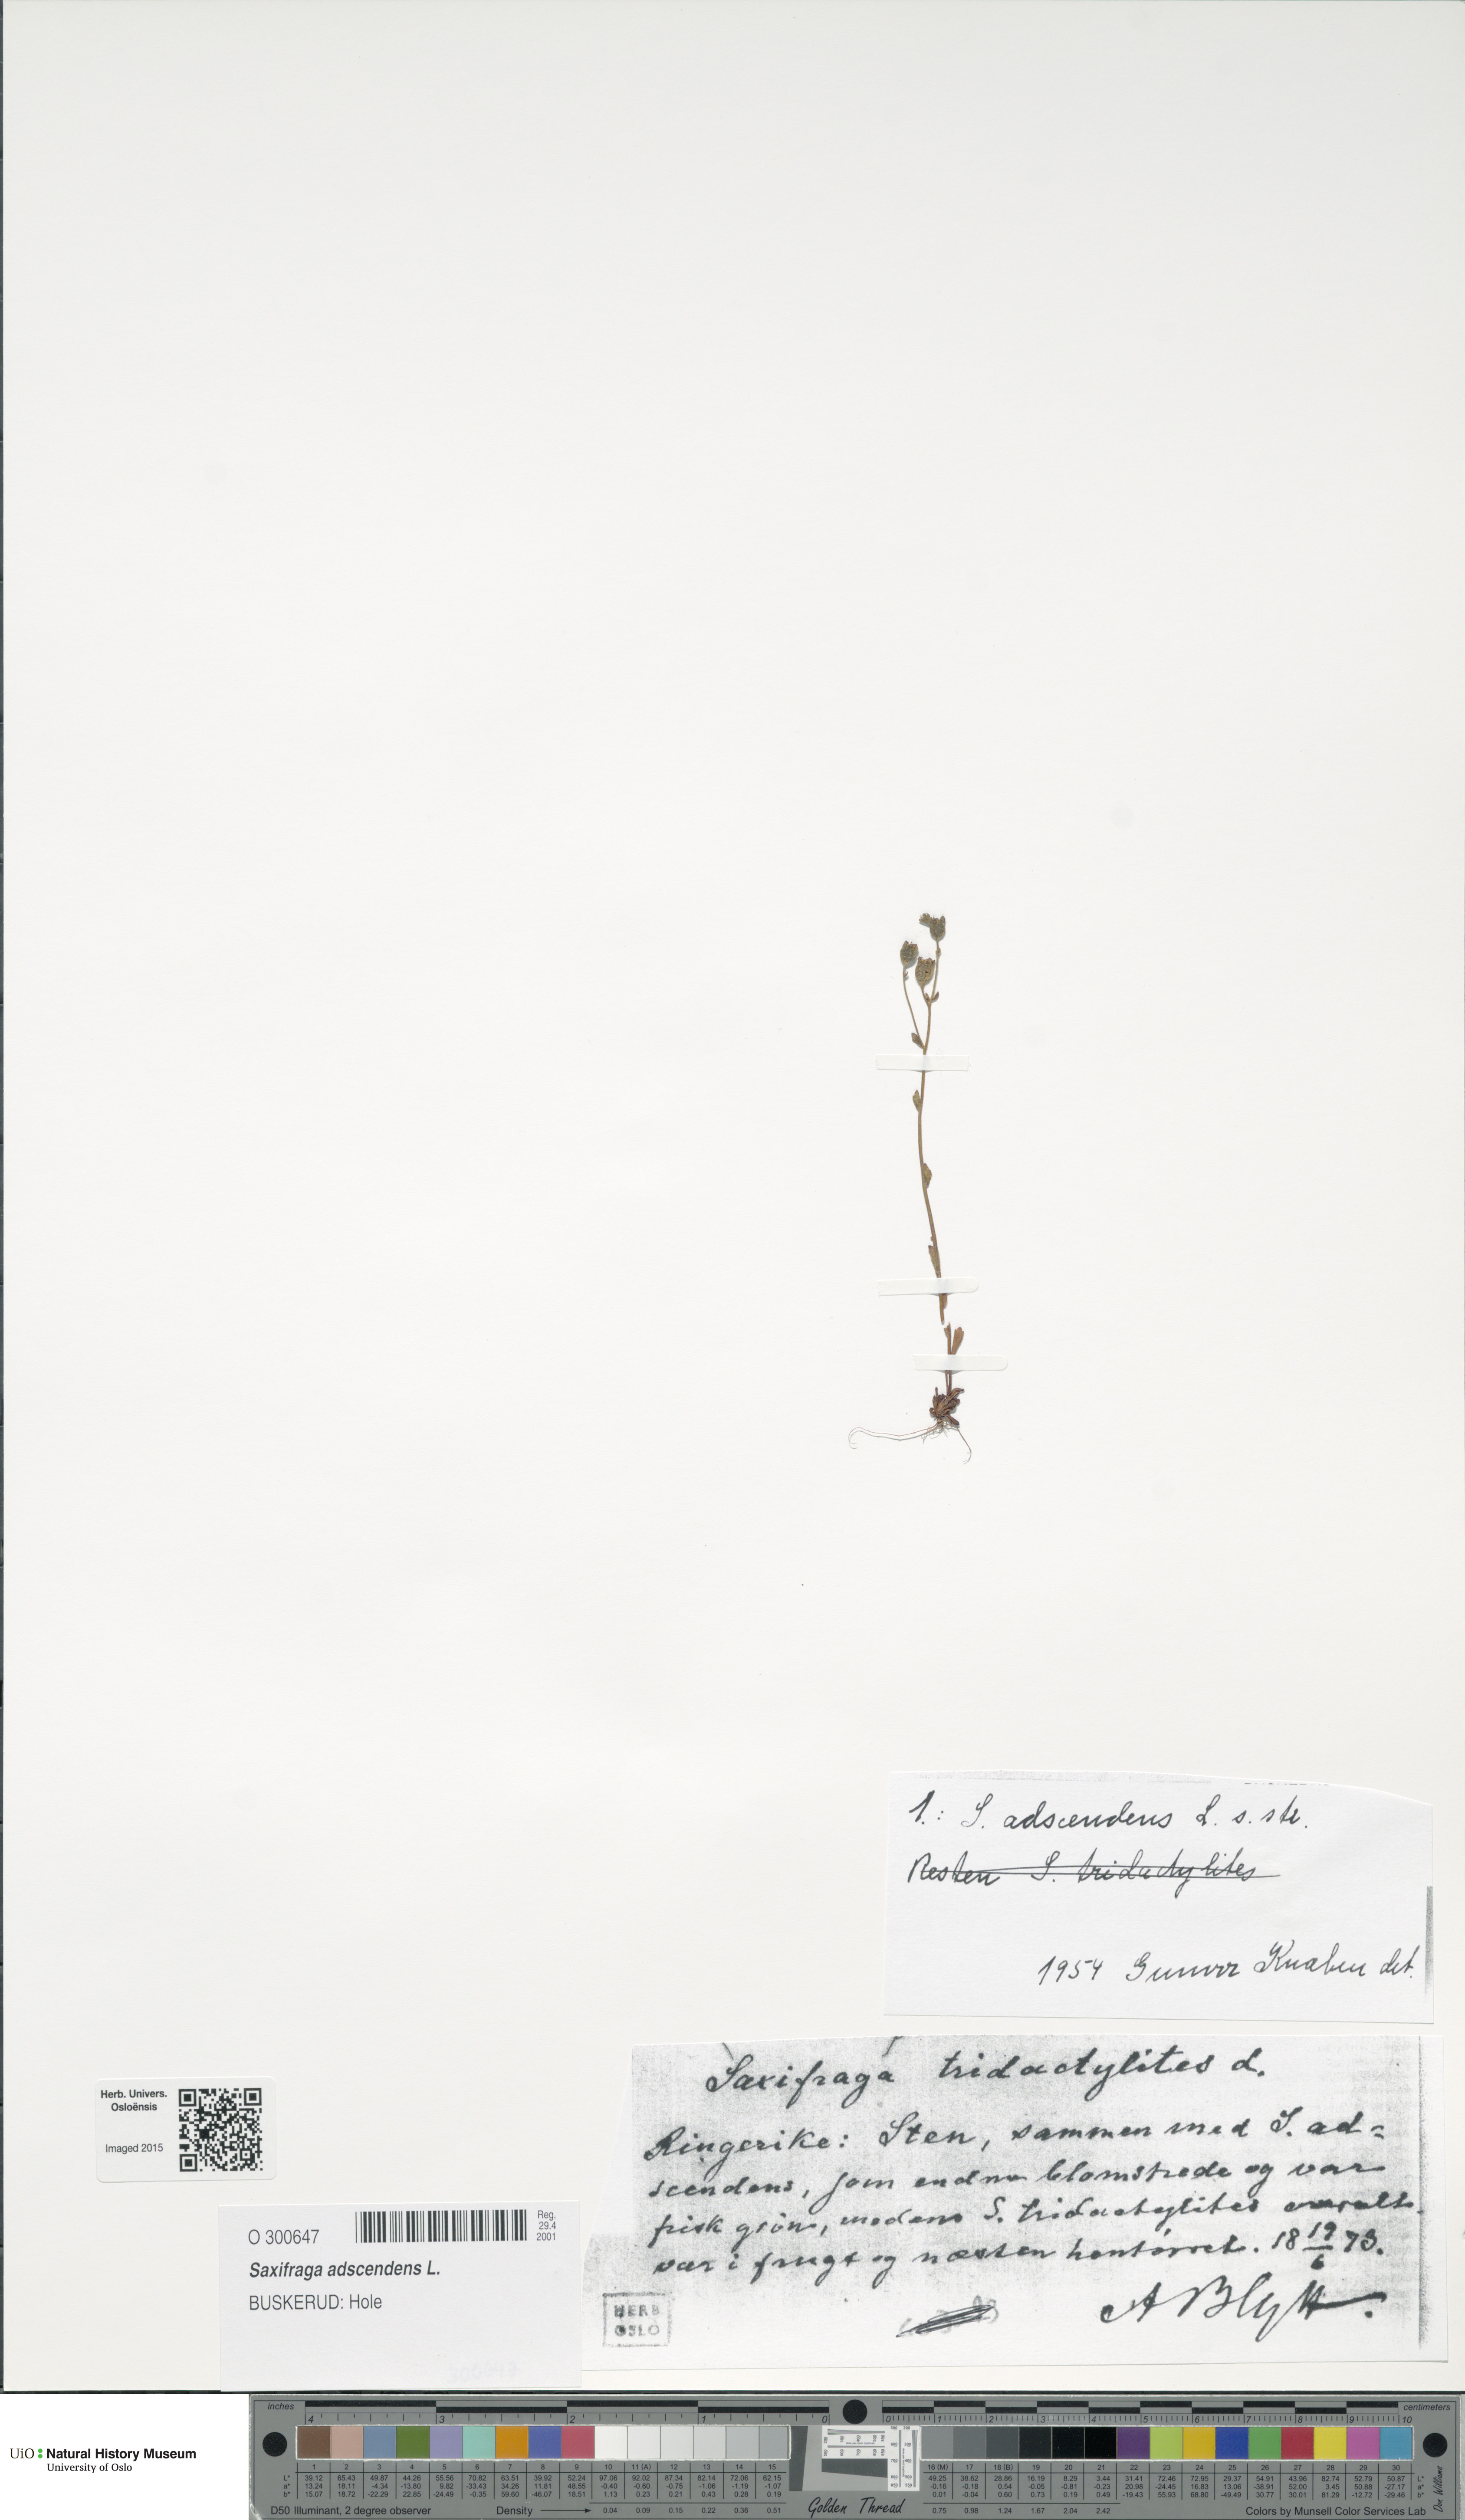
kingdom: Plantae
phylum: Tracheophyta
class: Magnoliopsida
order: Saxifragales
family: Saxifragaceae
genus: Saxifraga
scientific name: Saxifraga adscendens
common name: Ascending saxifrage
